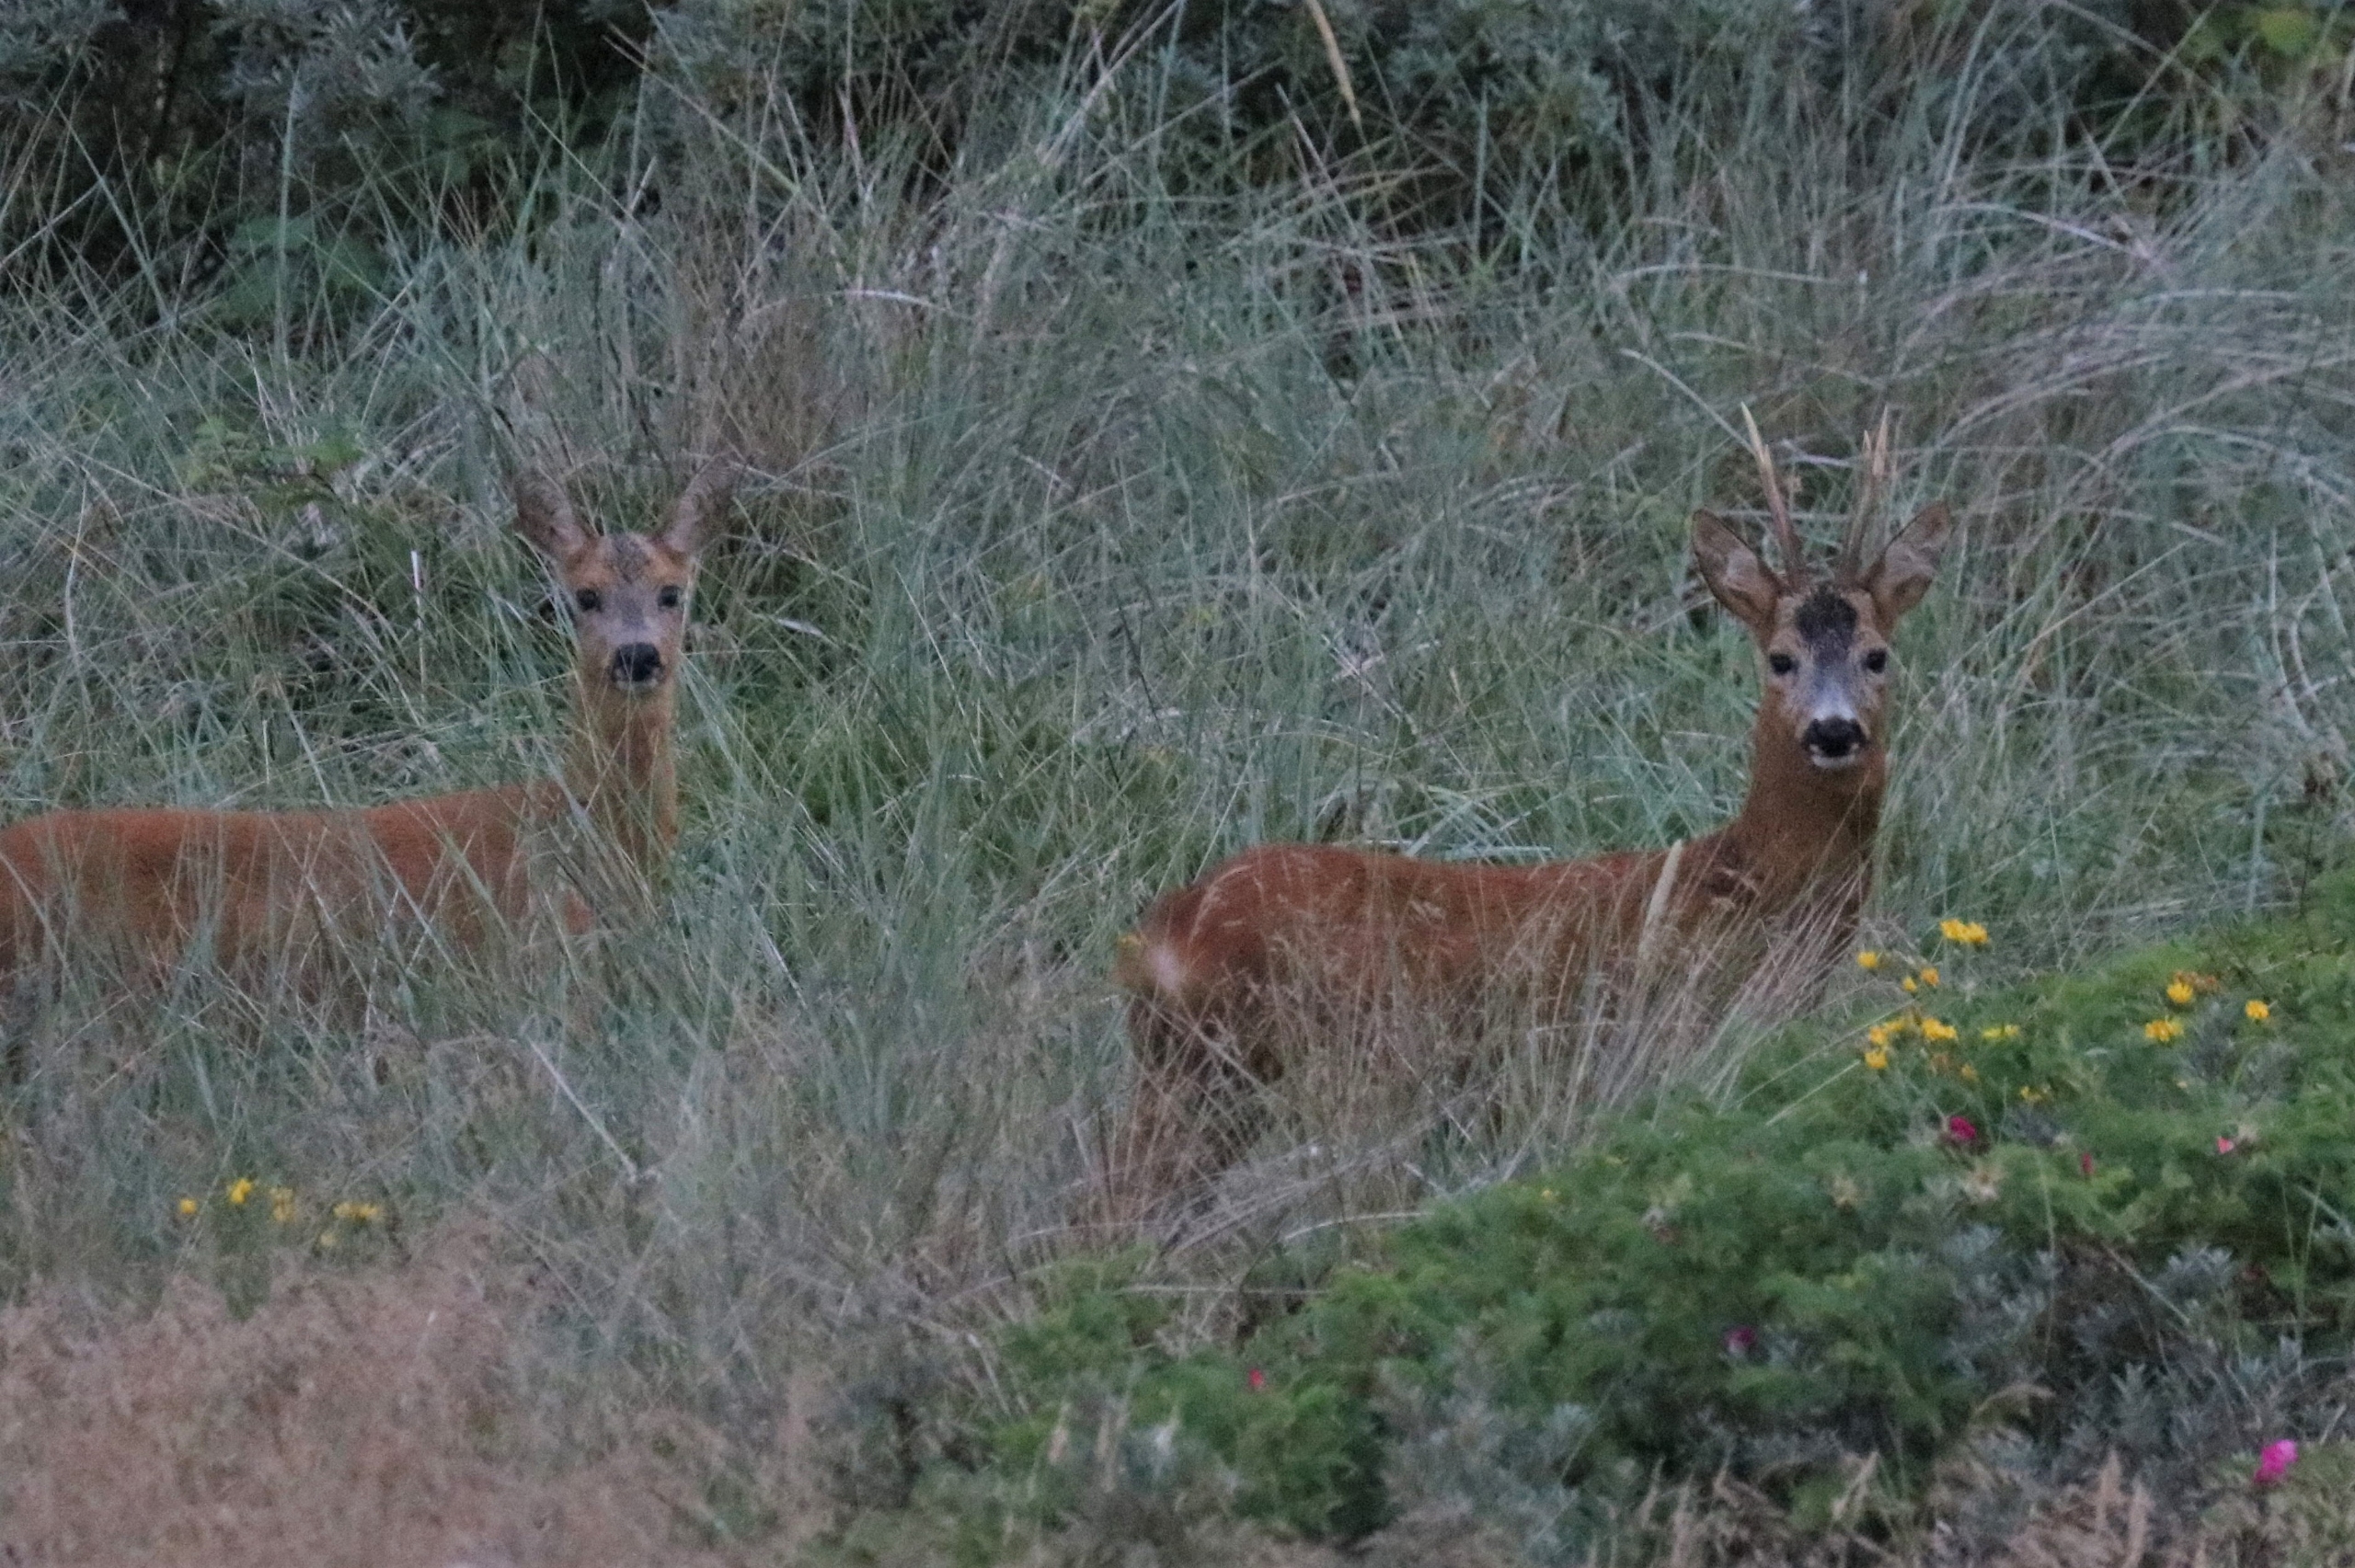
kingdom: Animalia
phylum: Chordata
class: Mammalia
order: Artiodactyla
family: Cervidae
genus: Capreolus
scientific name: Capreolus capreolus
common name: Rådyr
